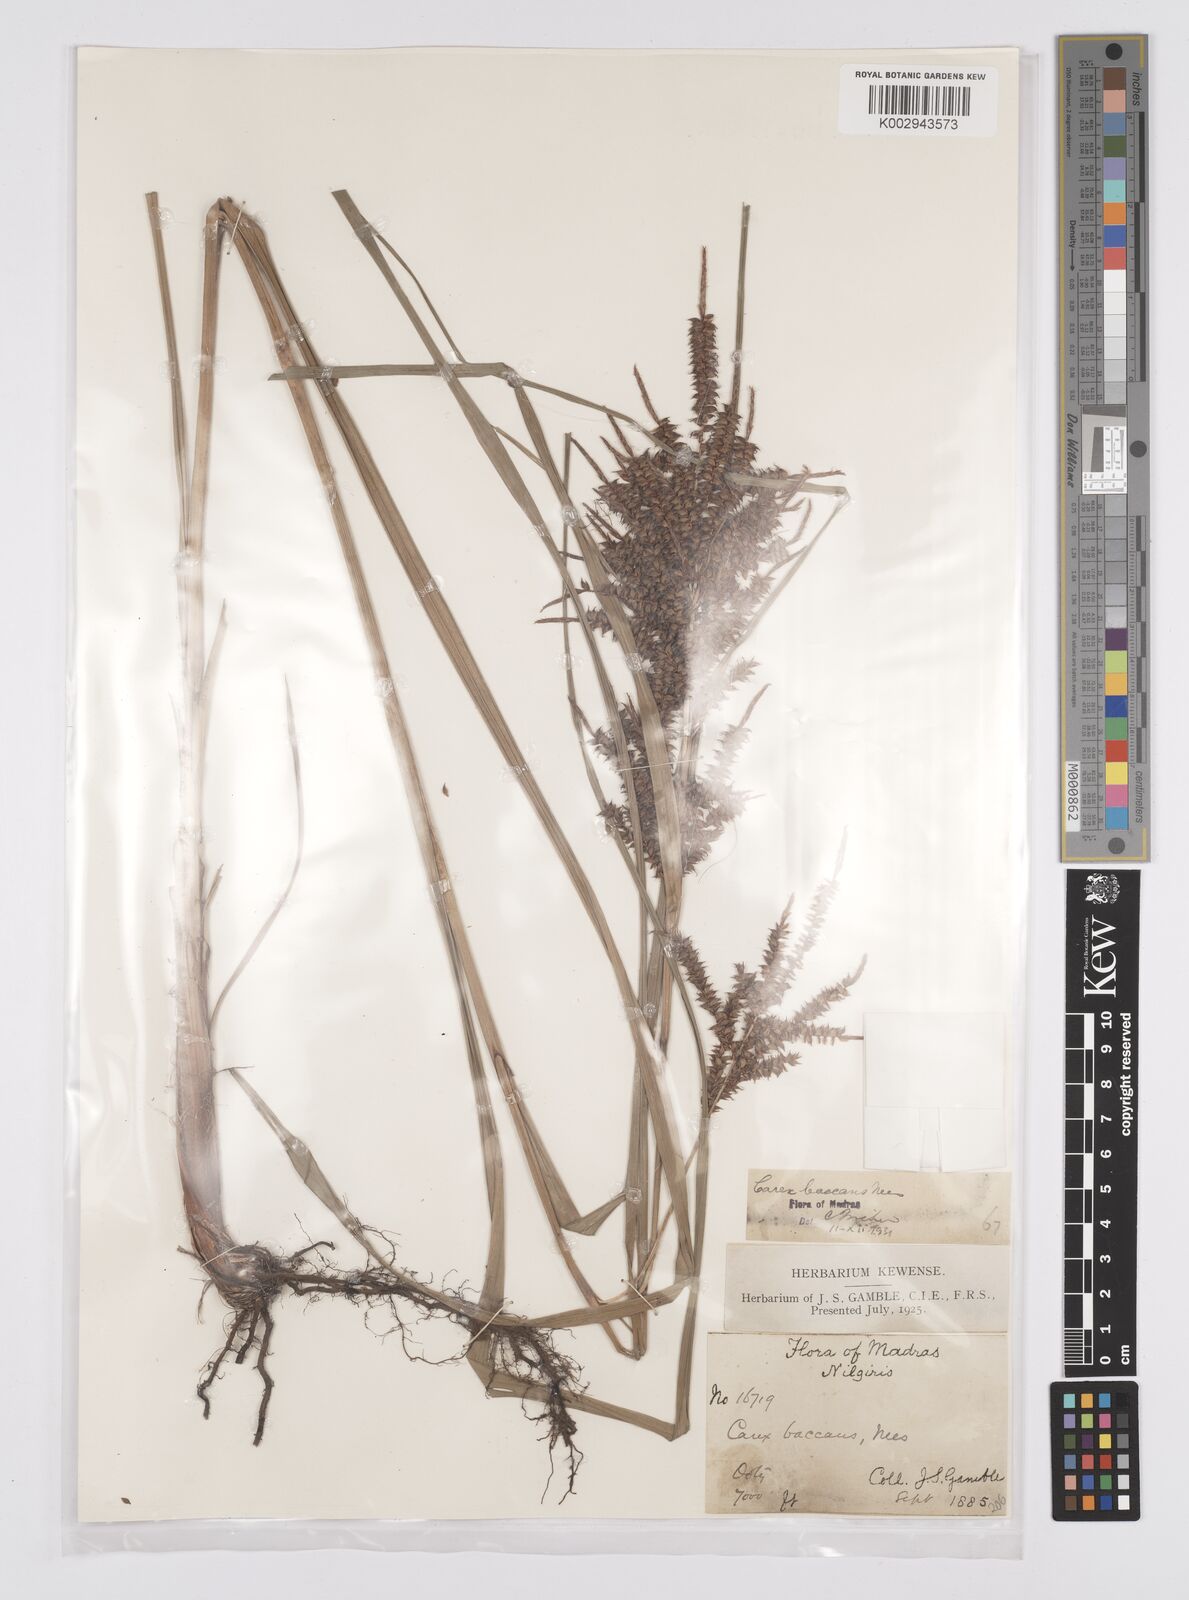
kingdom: Plantae
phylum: Tracheophyta
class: Liliopsida
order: Poales
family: Cyperaceae
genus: Carex
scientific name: Carex baccans
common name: Crimson seeded sedge
